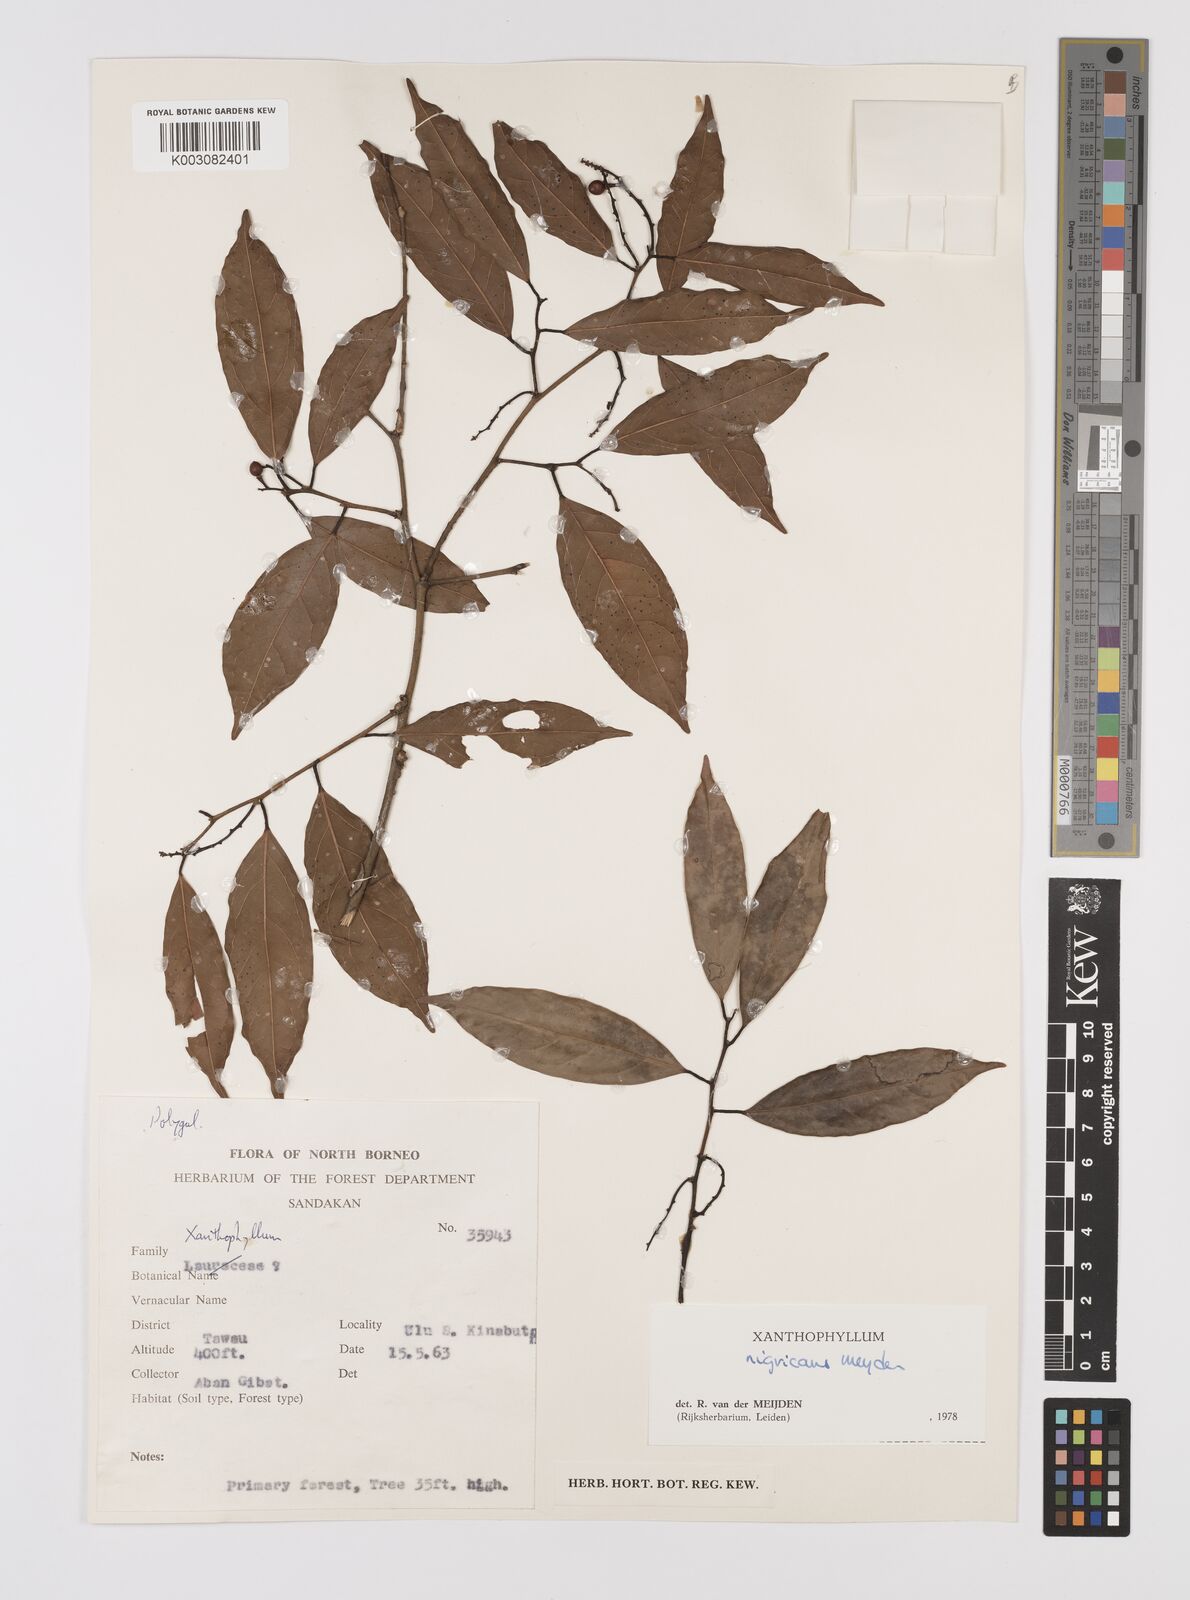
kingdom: Plantae
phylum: Tracheophyta
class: Magnoliopsida
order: Fabales
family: Polygalaceae
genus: Xanthophyllum
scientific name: Xanthophyllum nigricans
